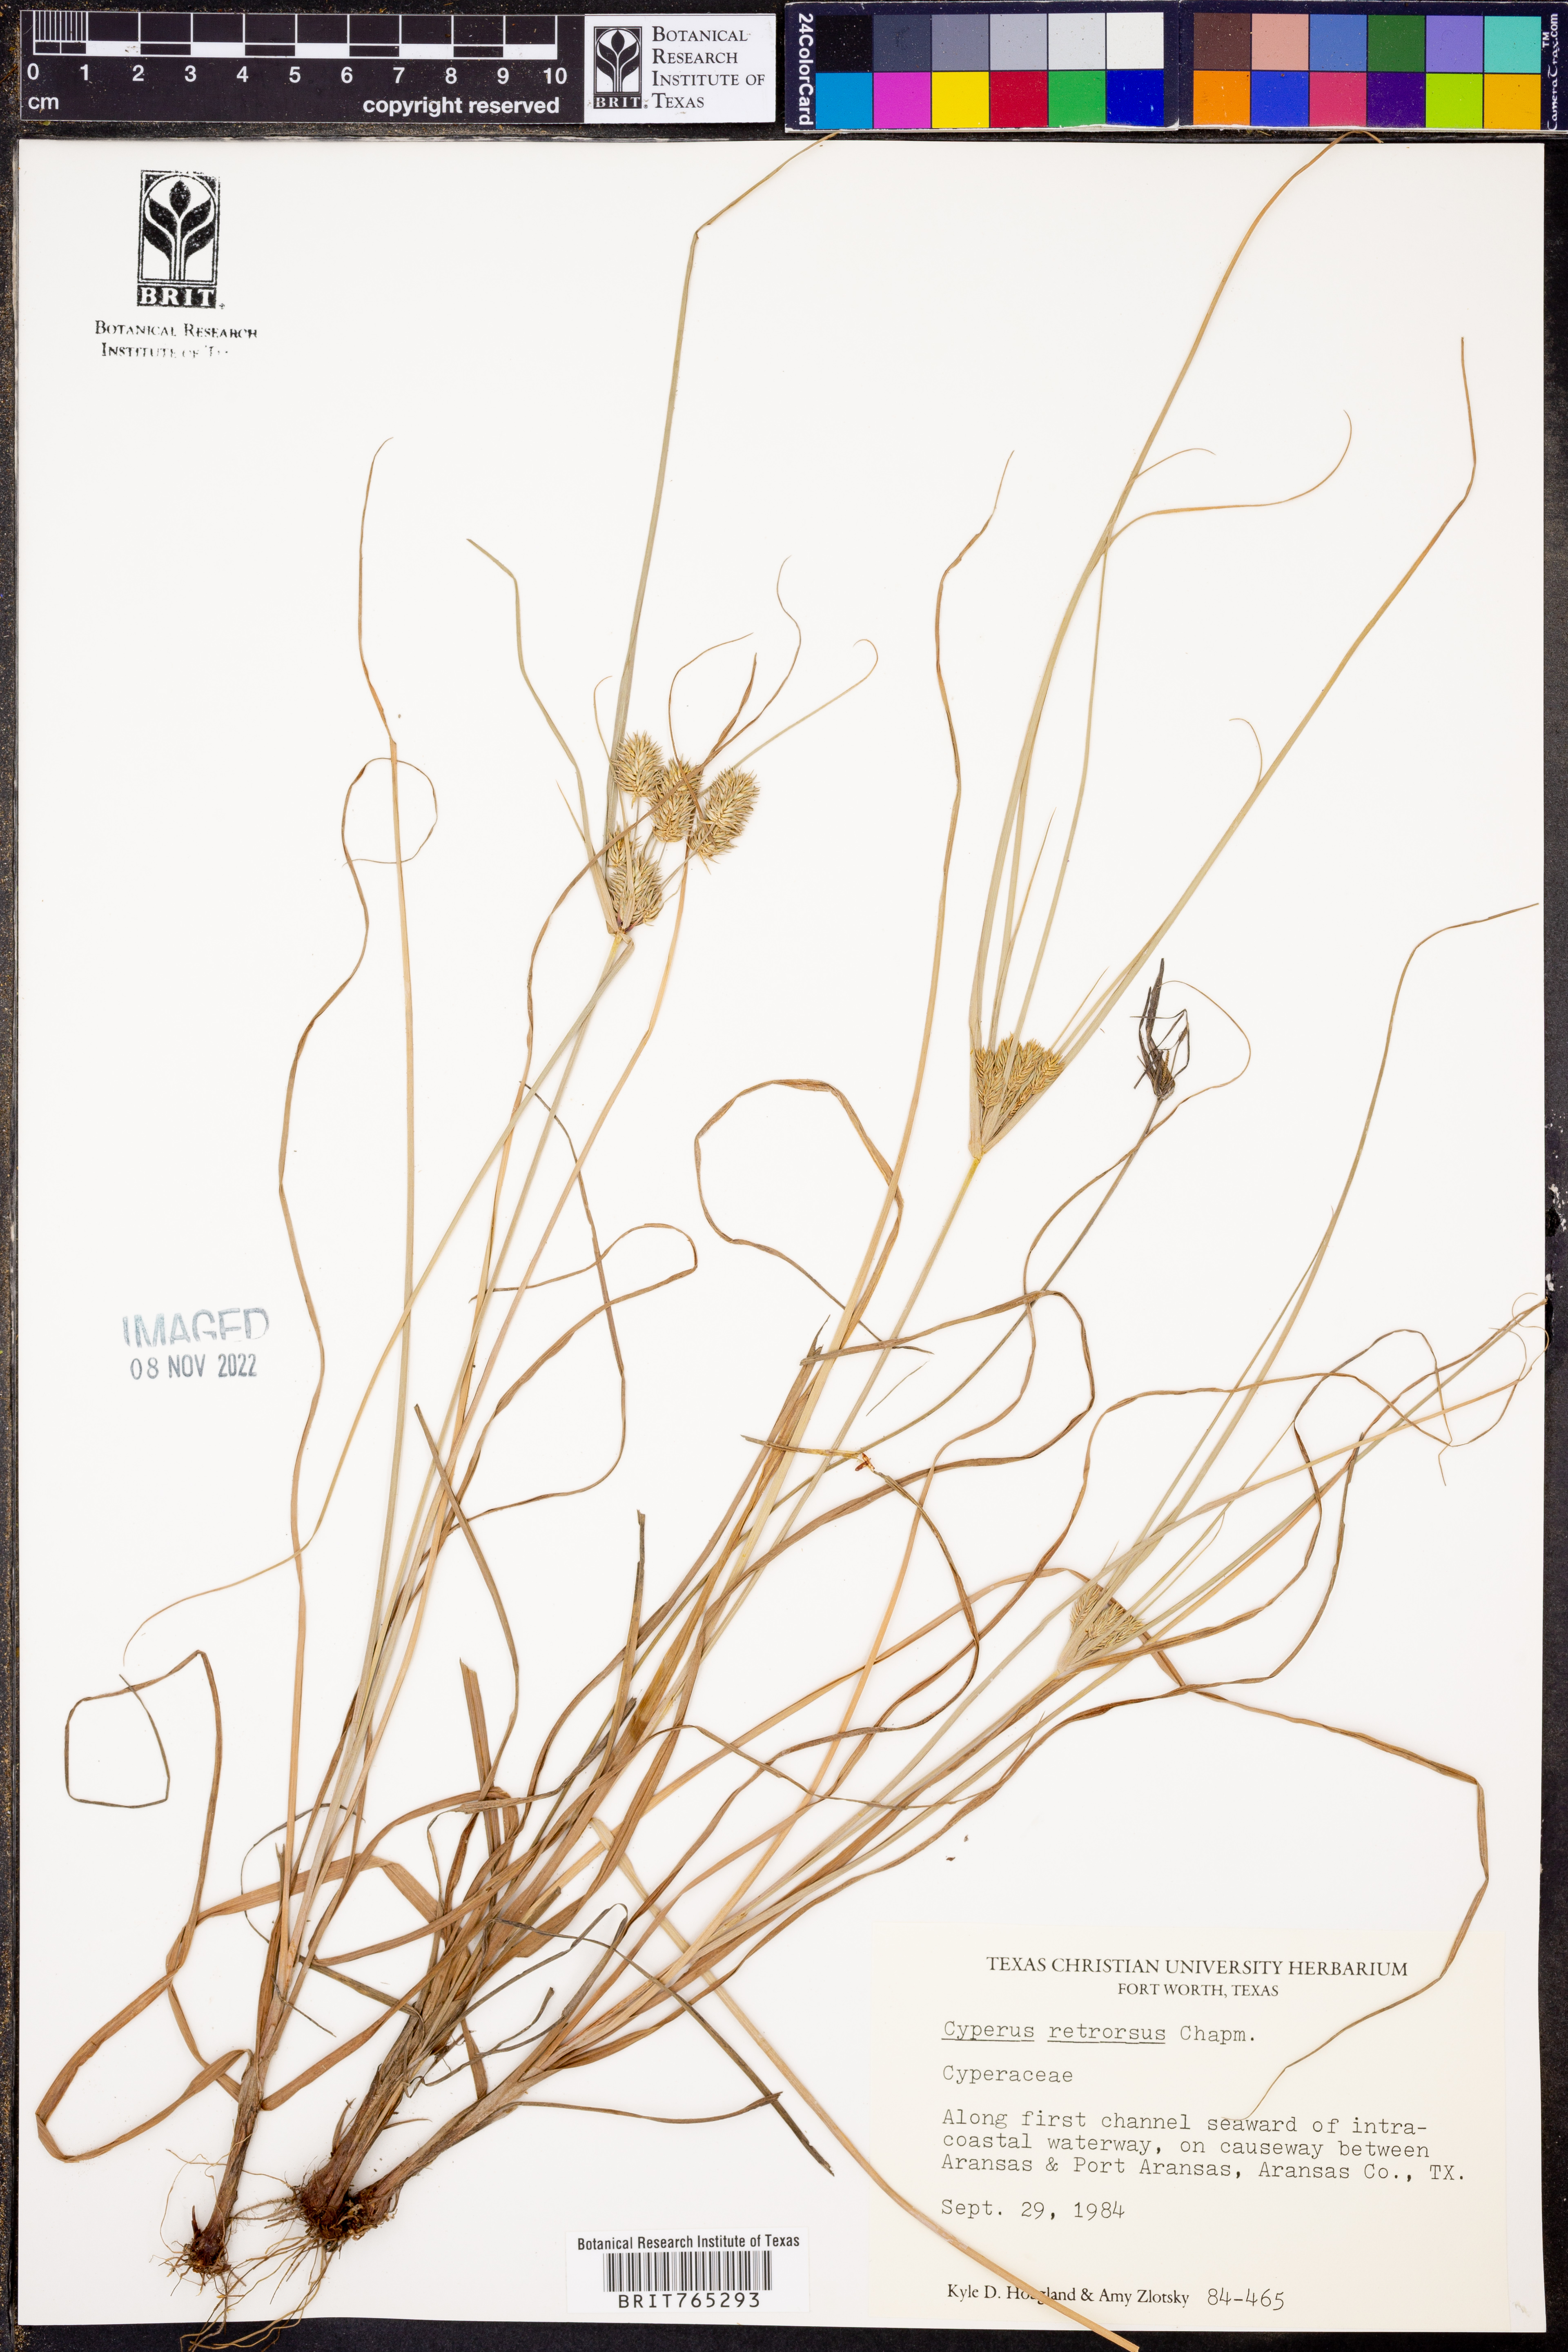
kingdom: Plantae
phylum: Tracheophyta
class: Liliopsida
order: Poales
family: Cyperaceae
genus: Cyperus
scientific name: Cyperus retrorsus
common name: Pinebarren flat sedge
